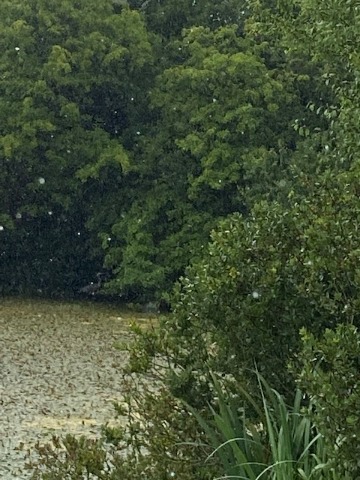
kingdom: Animalia
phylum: Chordata
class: Aves
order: Pelecaniformes
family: Ardeidae
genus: Ardea
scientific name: Ardea cinerea
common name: Fiskehejre
